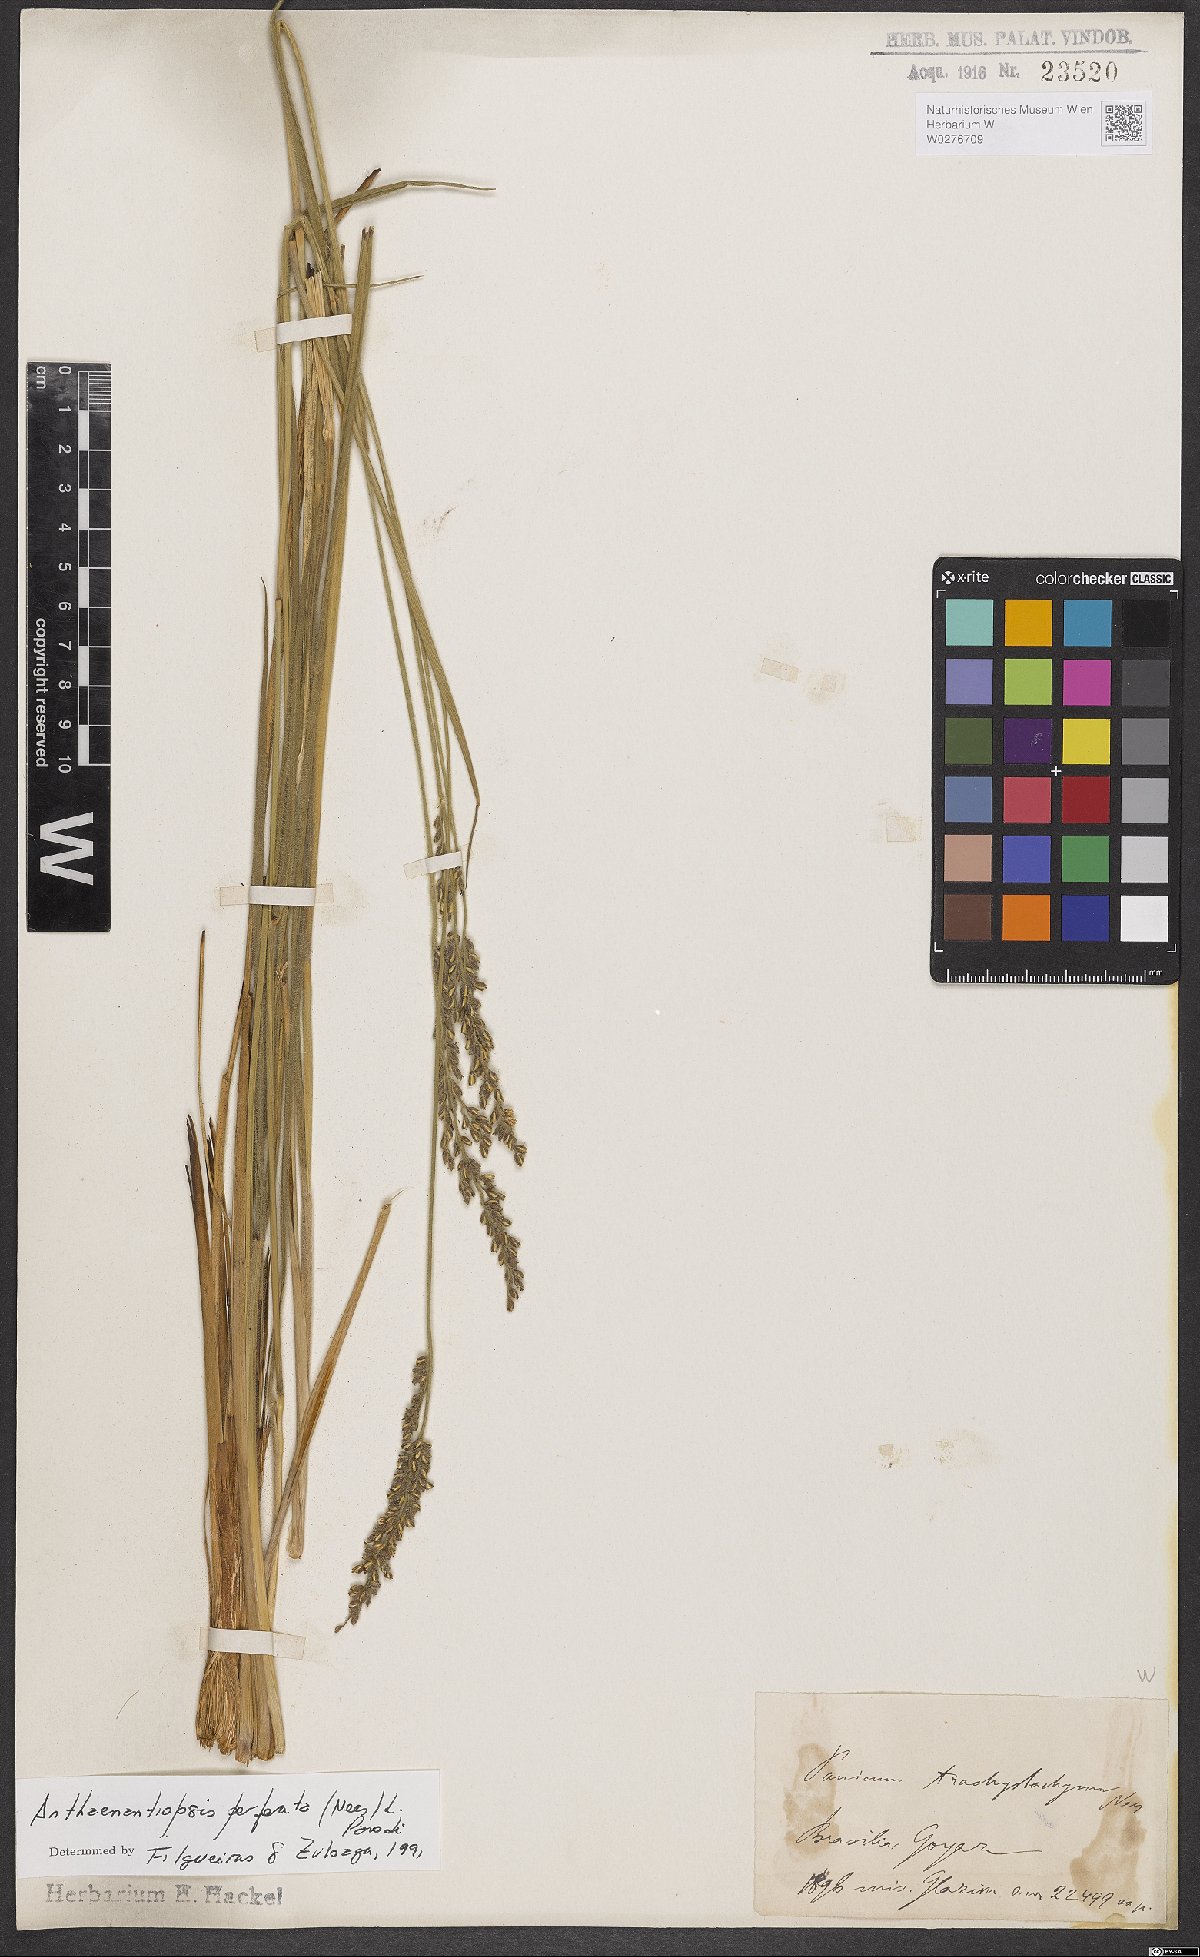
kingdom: Plantae
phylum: Tracheophyta
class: Liliopsida
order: Poales
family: Poaceae
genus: Anthaenantiopsis
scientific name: Anthaenantiopsis perforata
